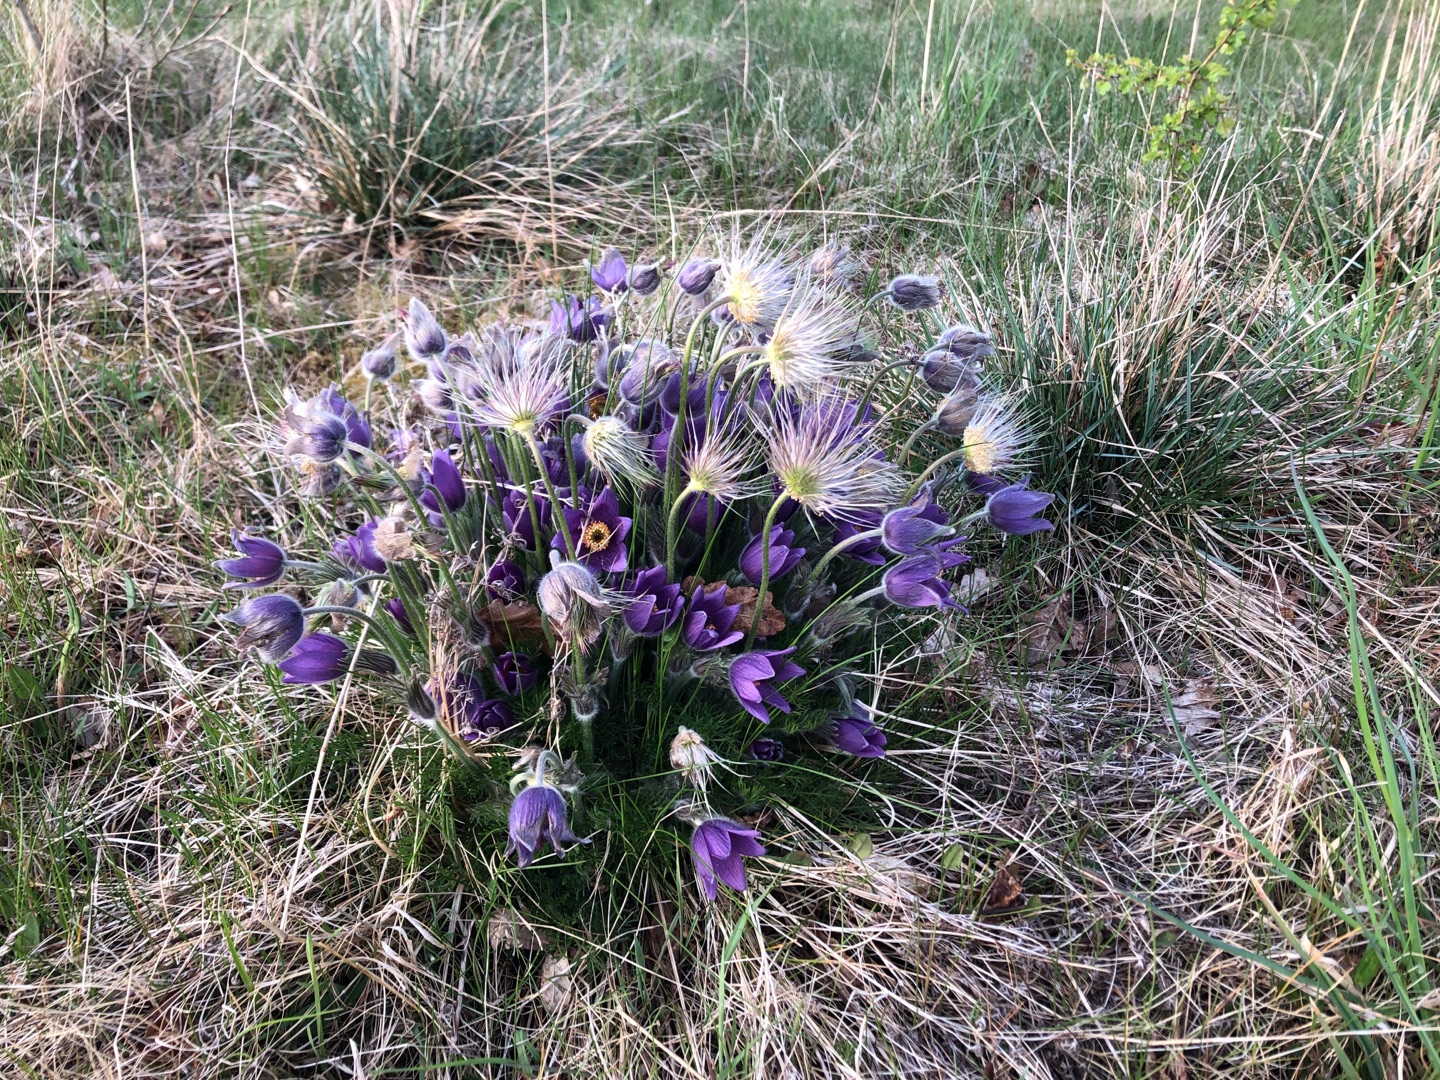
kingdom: Plantae
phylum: Tracheophyta
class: Magnoliopsida
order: Ranunculales
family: Ranunculaceae
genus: Pulsatilla
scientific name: Pulsatilla vulgaris
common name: Opret kobjælde
